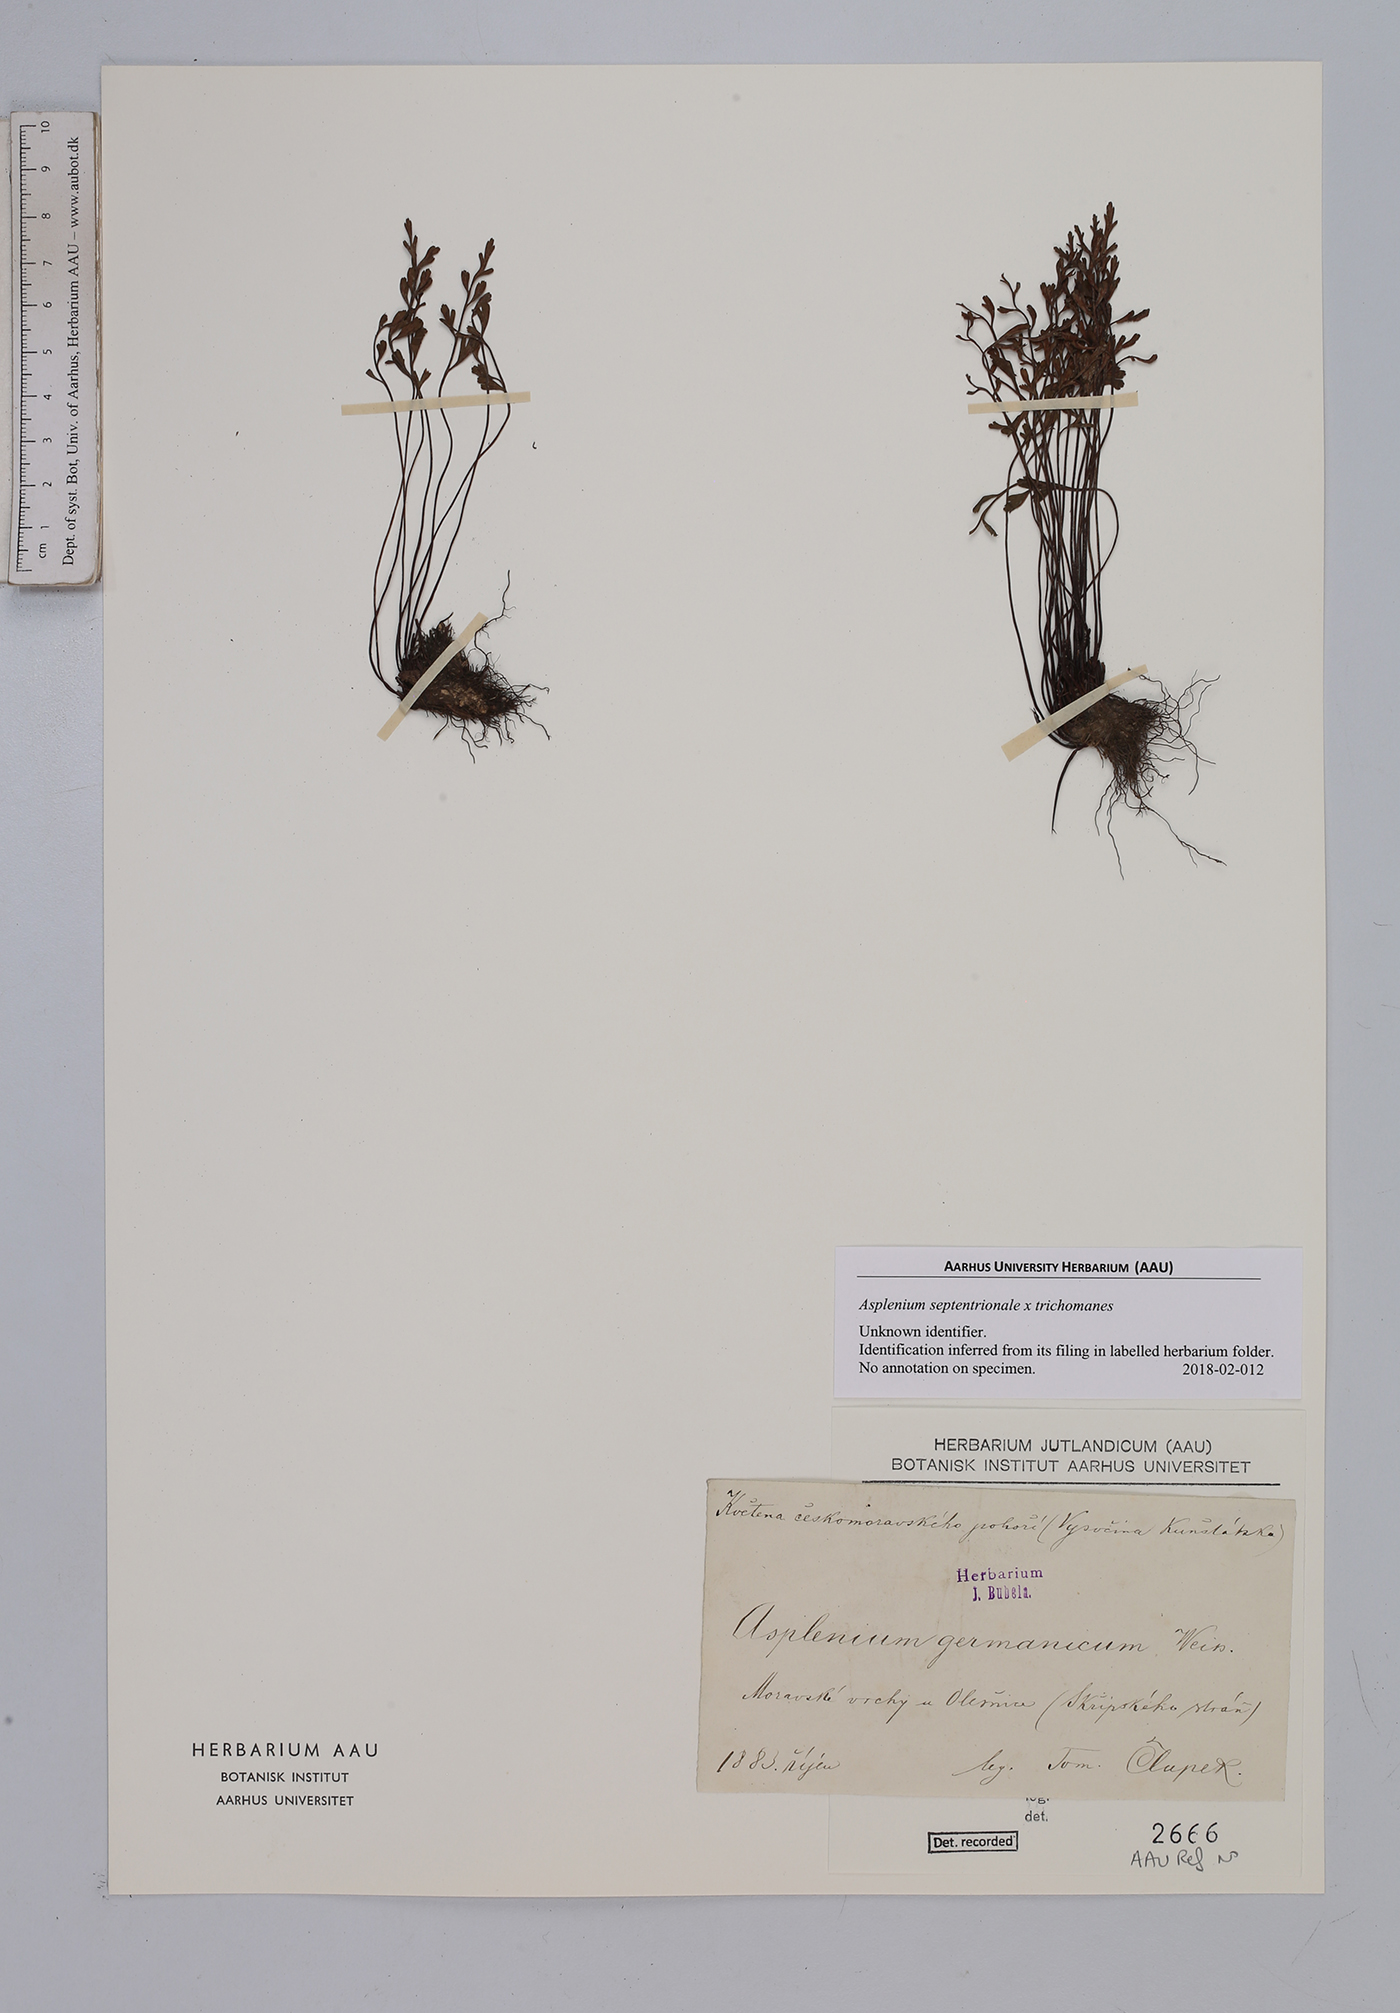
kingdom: Plantae
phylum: Tracheophyta
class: Polypodiopsida
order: Polypodiales
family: Aspleniaceae
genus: Asplenium
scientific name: Asplenium
